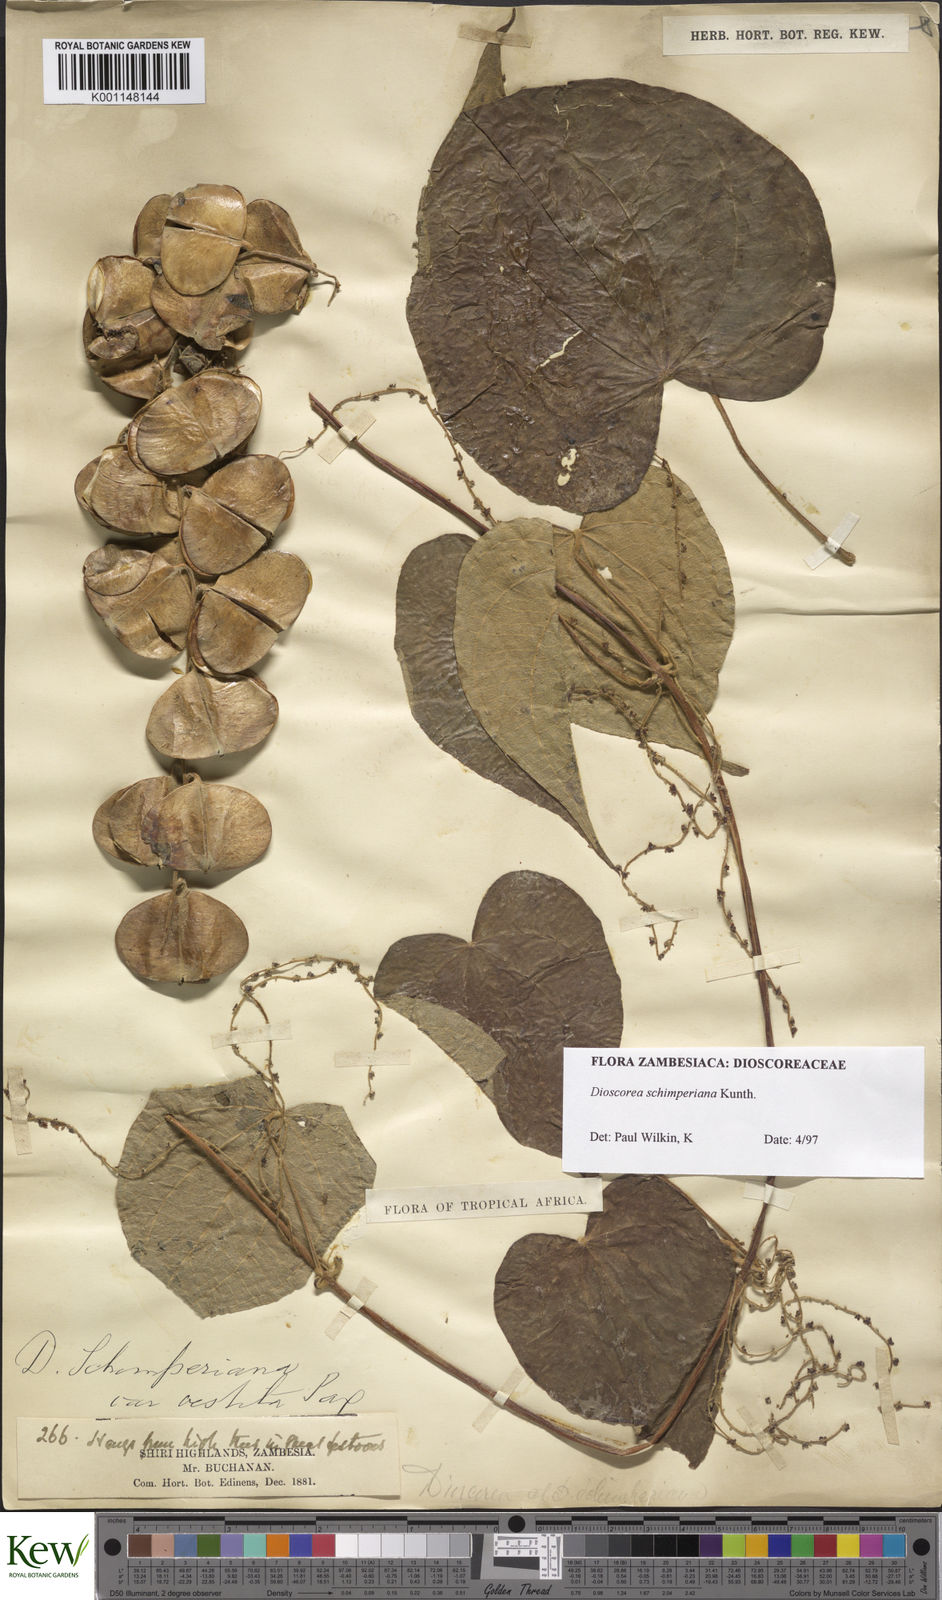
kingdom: Plantae
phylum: Tracheophyta
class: Liliopsida
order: Dioscoreales
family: Dioscoreaceae
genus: Dioscorea
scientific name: Dioscorea schimperiana
